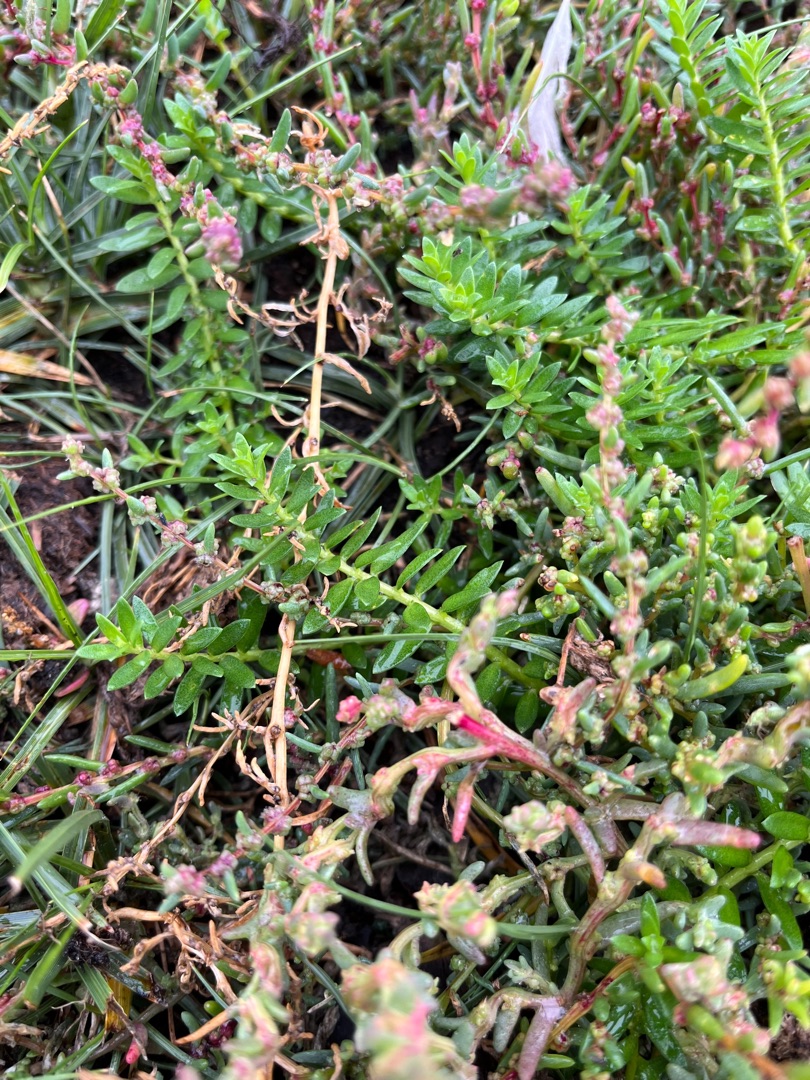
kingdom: Plantae
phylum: Tracheophyta
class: Magnoliopsida
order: Ericales
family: Primulaceae
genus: Lysimachia
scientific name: Lysimachia maritima
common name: Sandkryb
